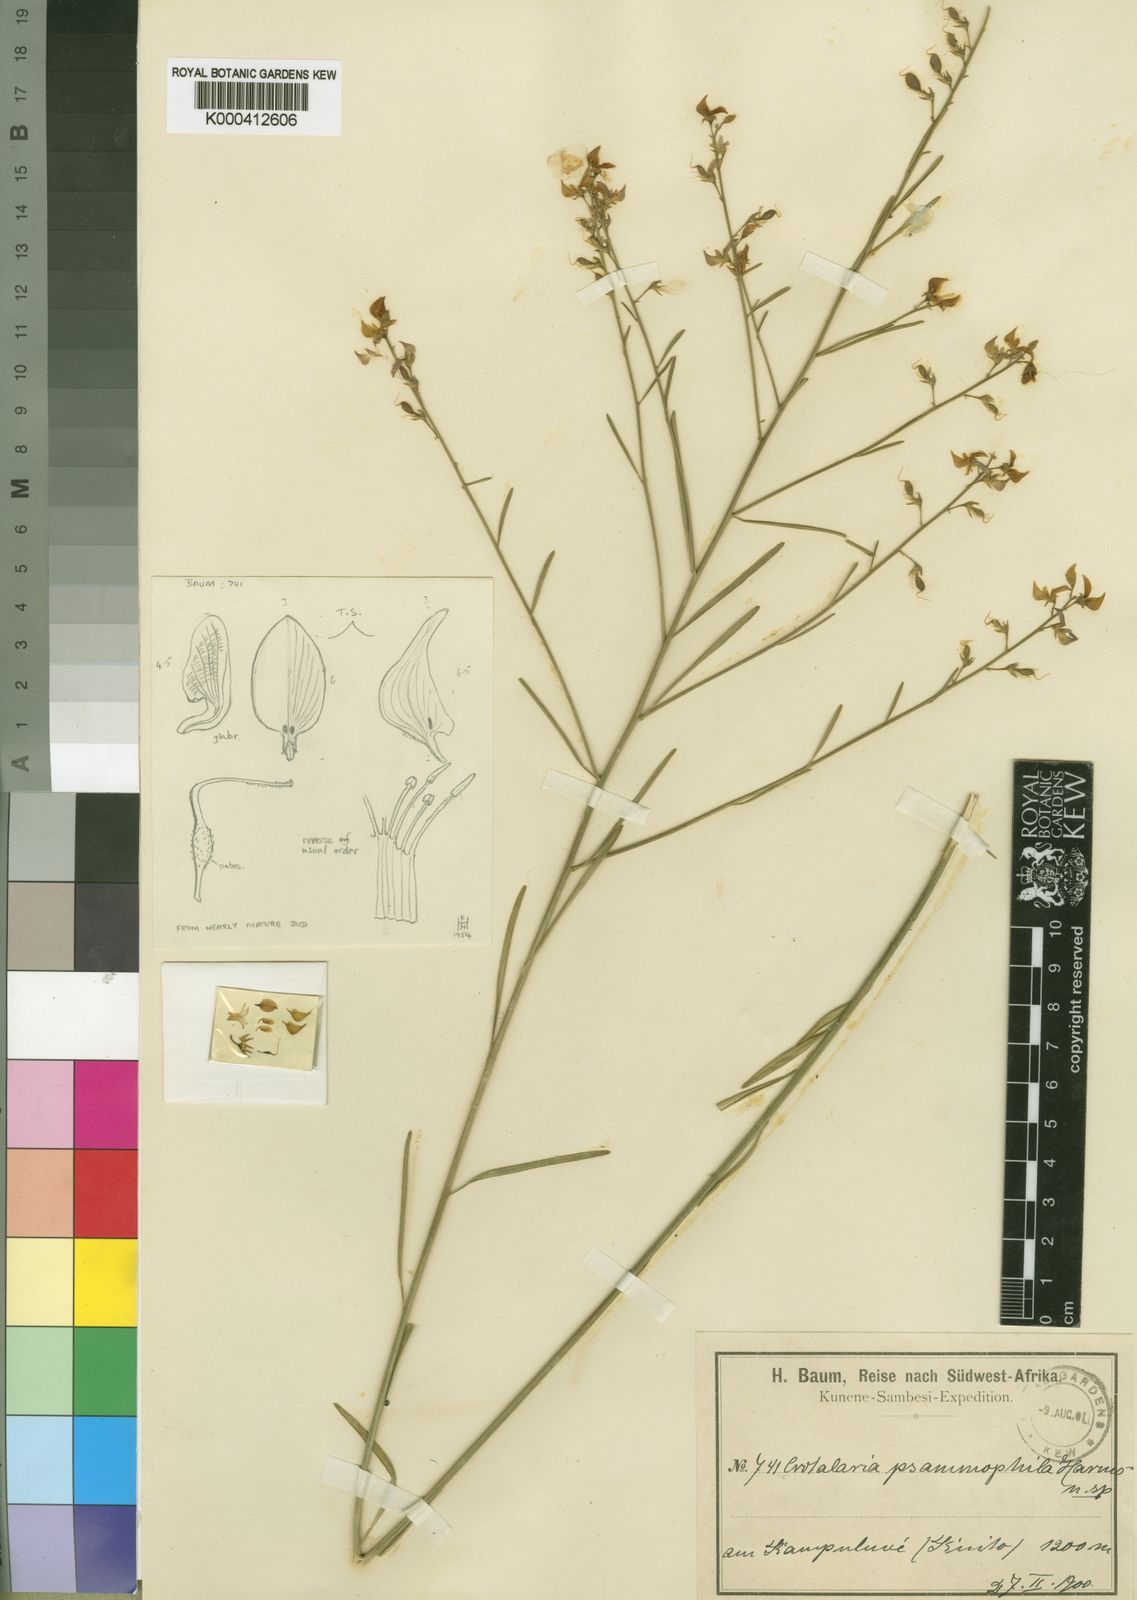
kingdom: Plantae
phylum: Tracheophyta
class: Magnoliopsida
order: Fabales
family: Fabaceae
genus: Crotalaria
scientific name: Crotalaria psammophila
